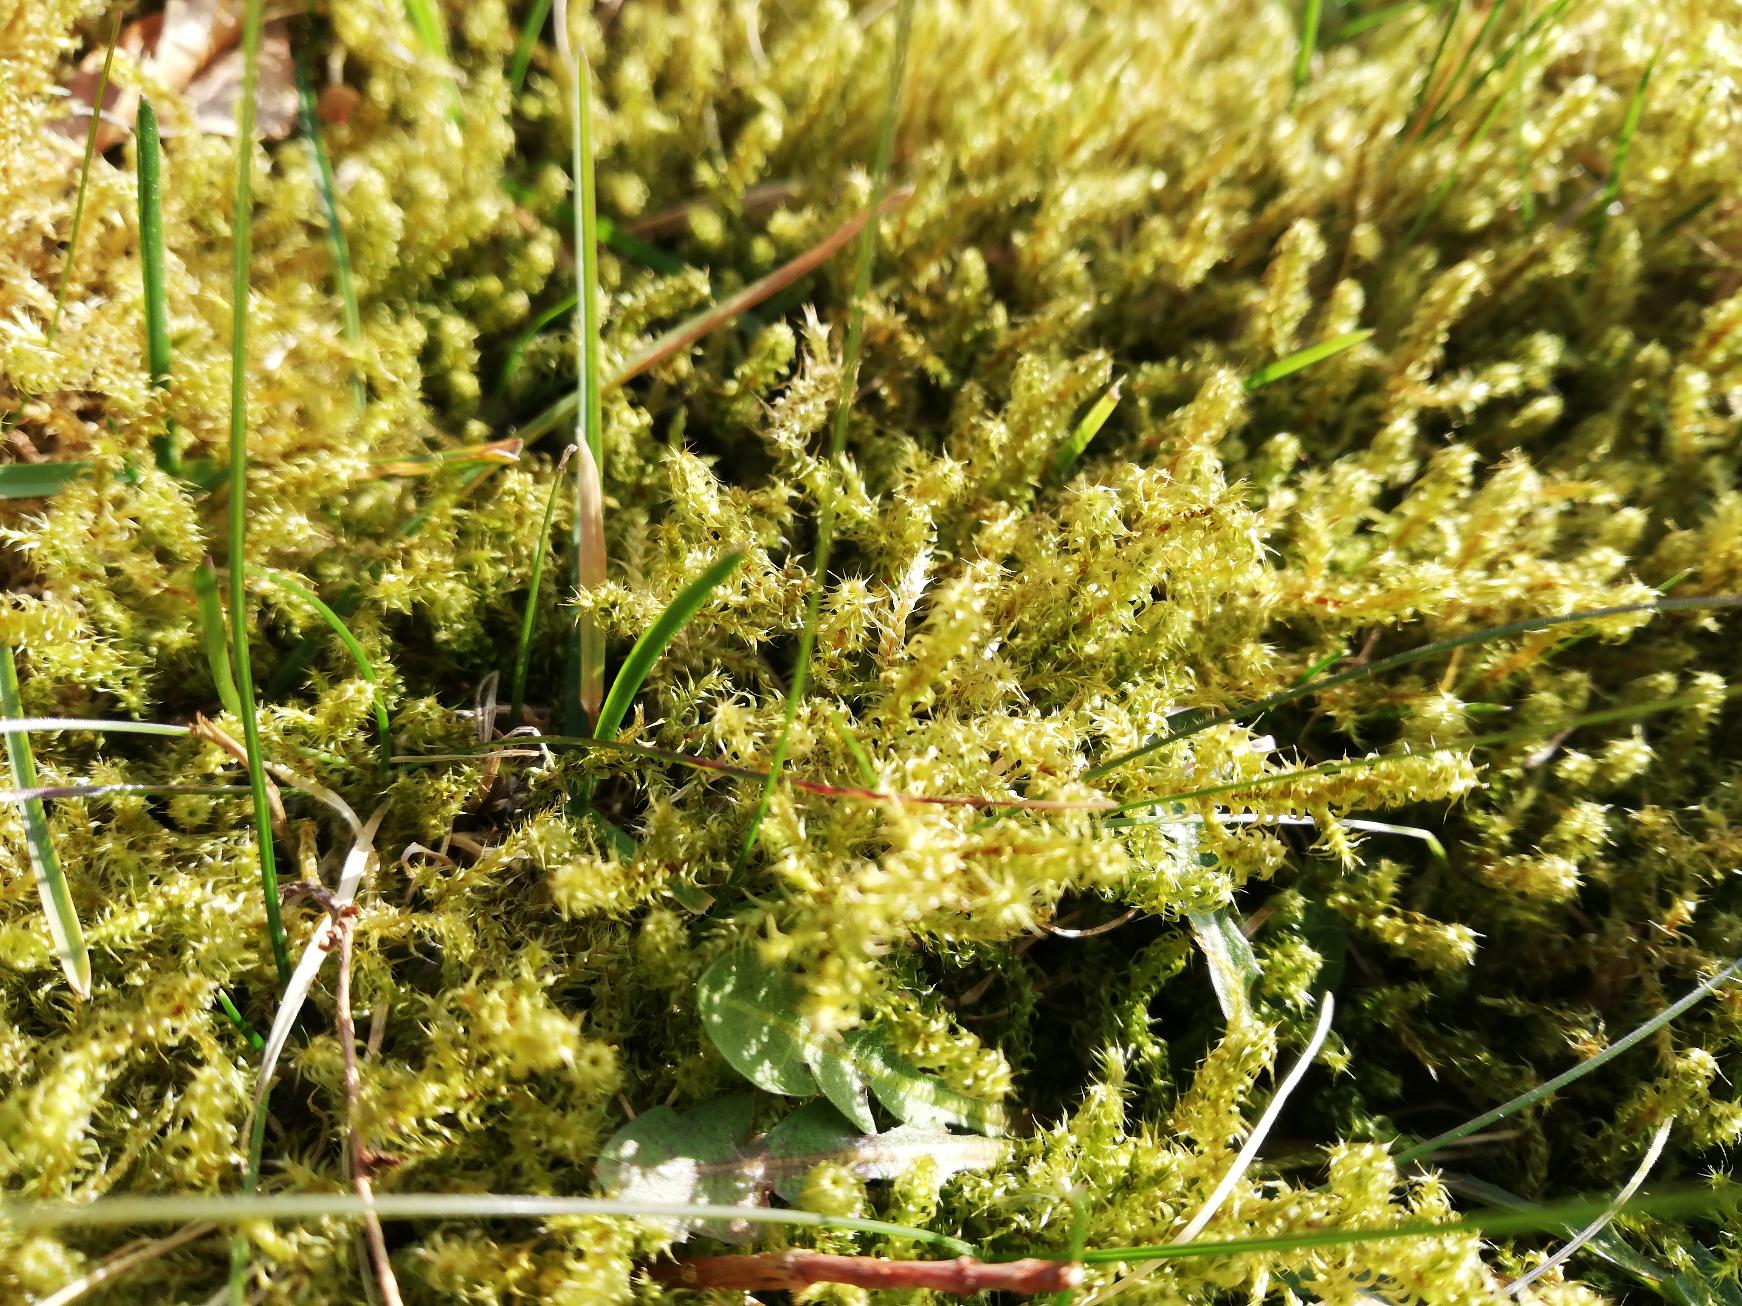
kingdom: Plantae
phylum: Bryophyta
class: Bryopsida
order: Hypnales
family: Hylocomiaceae
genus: Rhytidiadelphus
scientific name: Rhytidiadelphus squarrosus
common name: Plæne-kransemos
